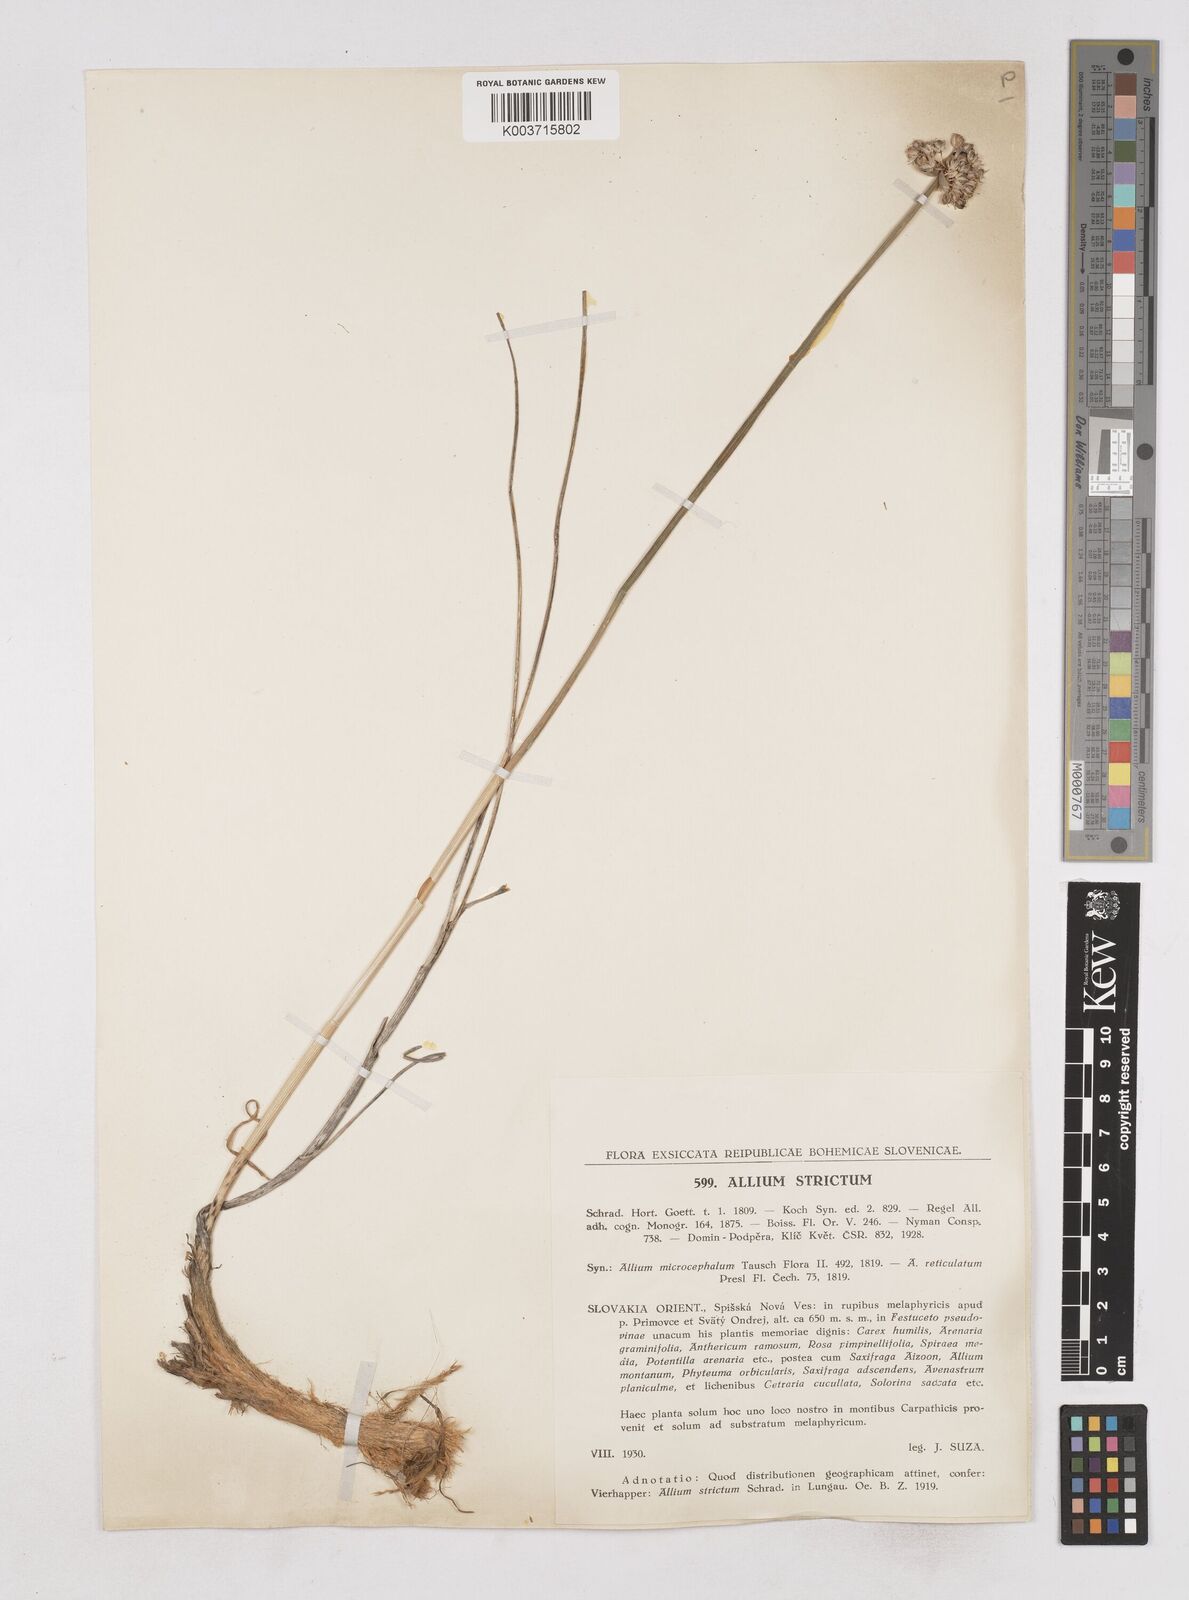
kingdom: Plantae
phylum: Tracheophyta
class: Liliopsida
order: Asparagales
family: Amaryllidaceae
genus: Allium
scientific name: Allium strictum
